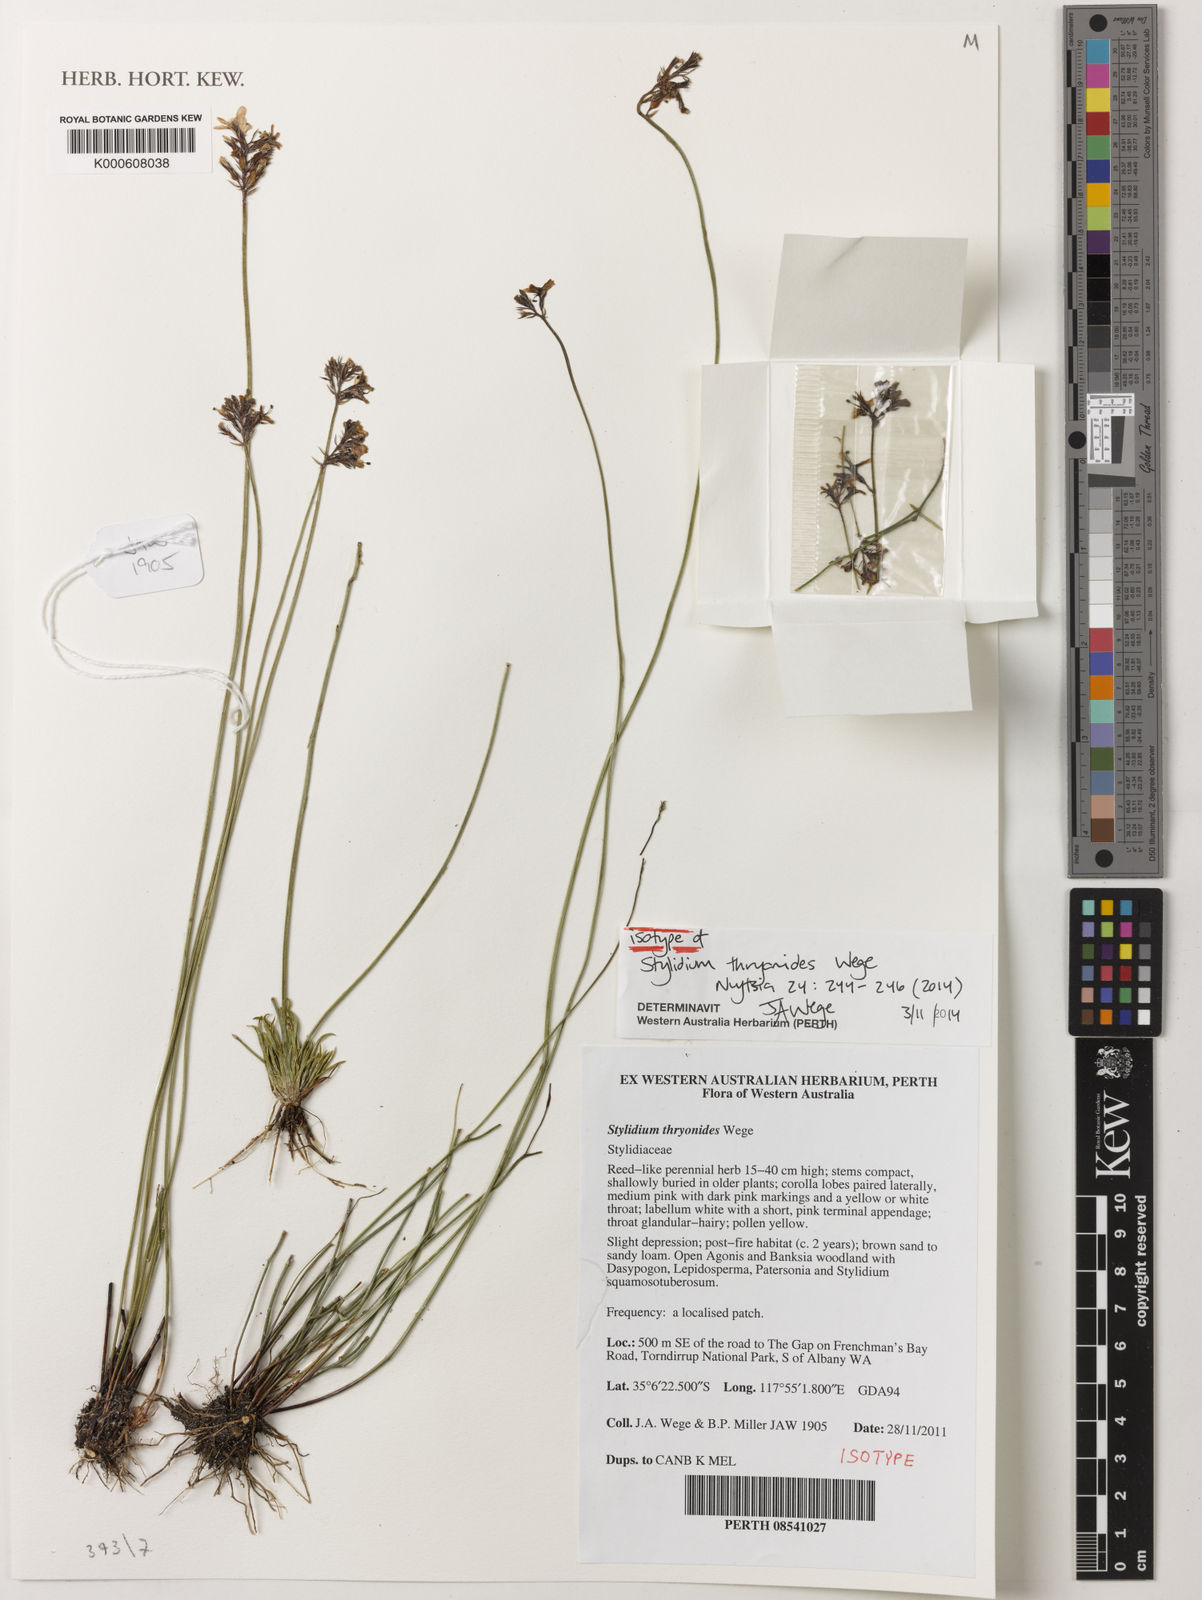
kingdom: Plantae
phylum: Tracheophyta
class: Magnoliopsida
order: Asterales
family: Stylidiaceae
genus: Stylidium
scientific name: Stylidium
